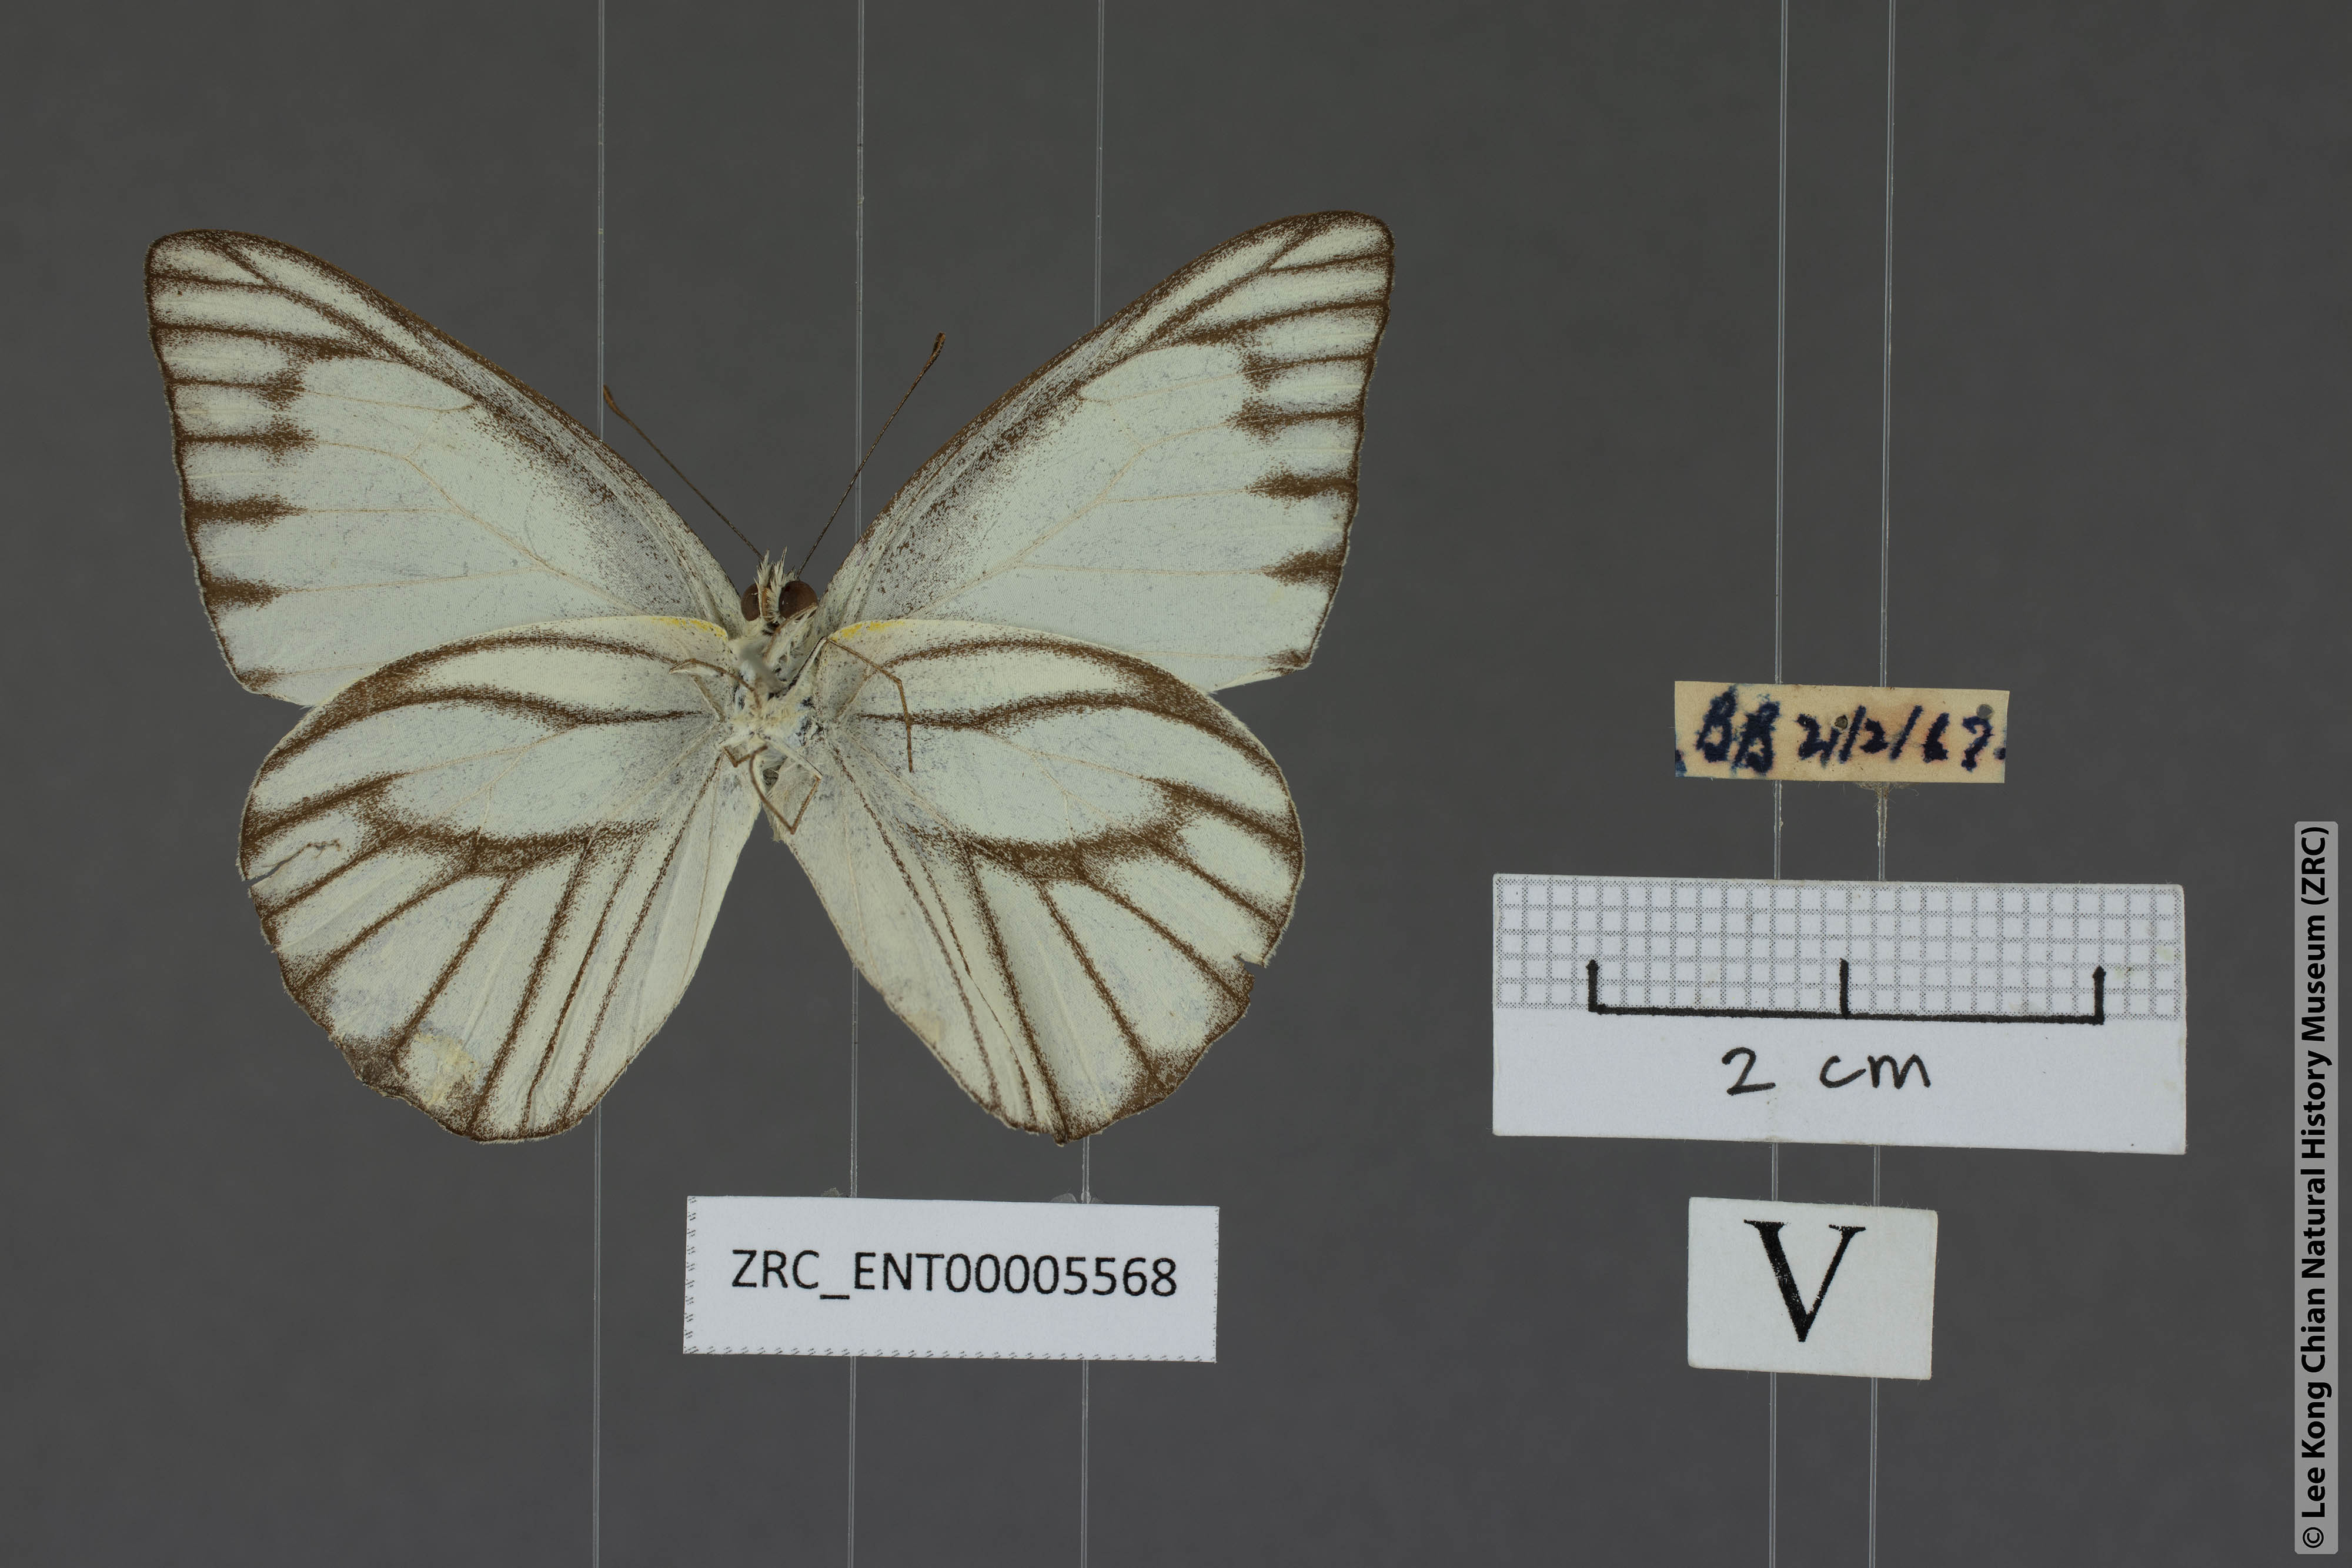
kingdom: Animalia
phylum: Arthropoda
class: Insecta
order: Lepidoptera
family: Pieridae
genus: Appias
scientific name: Appias libythea
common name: Striped albatross
